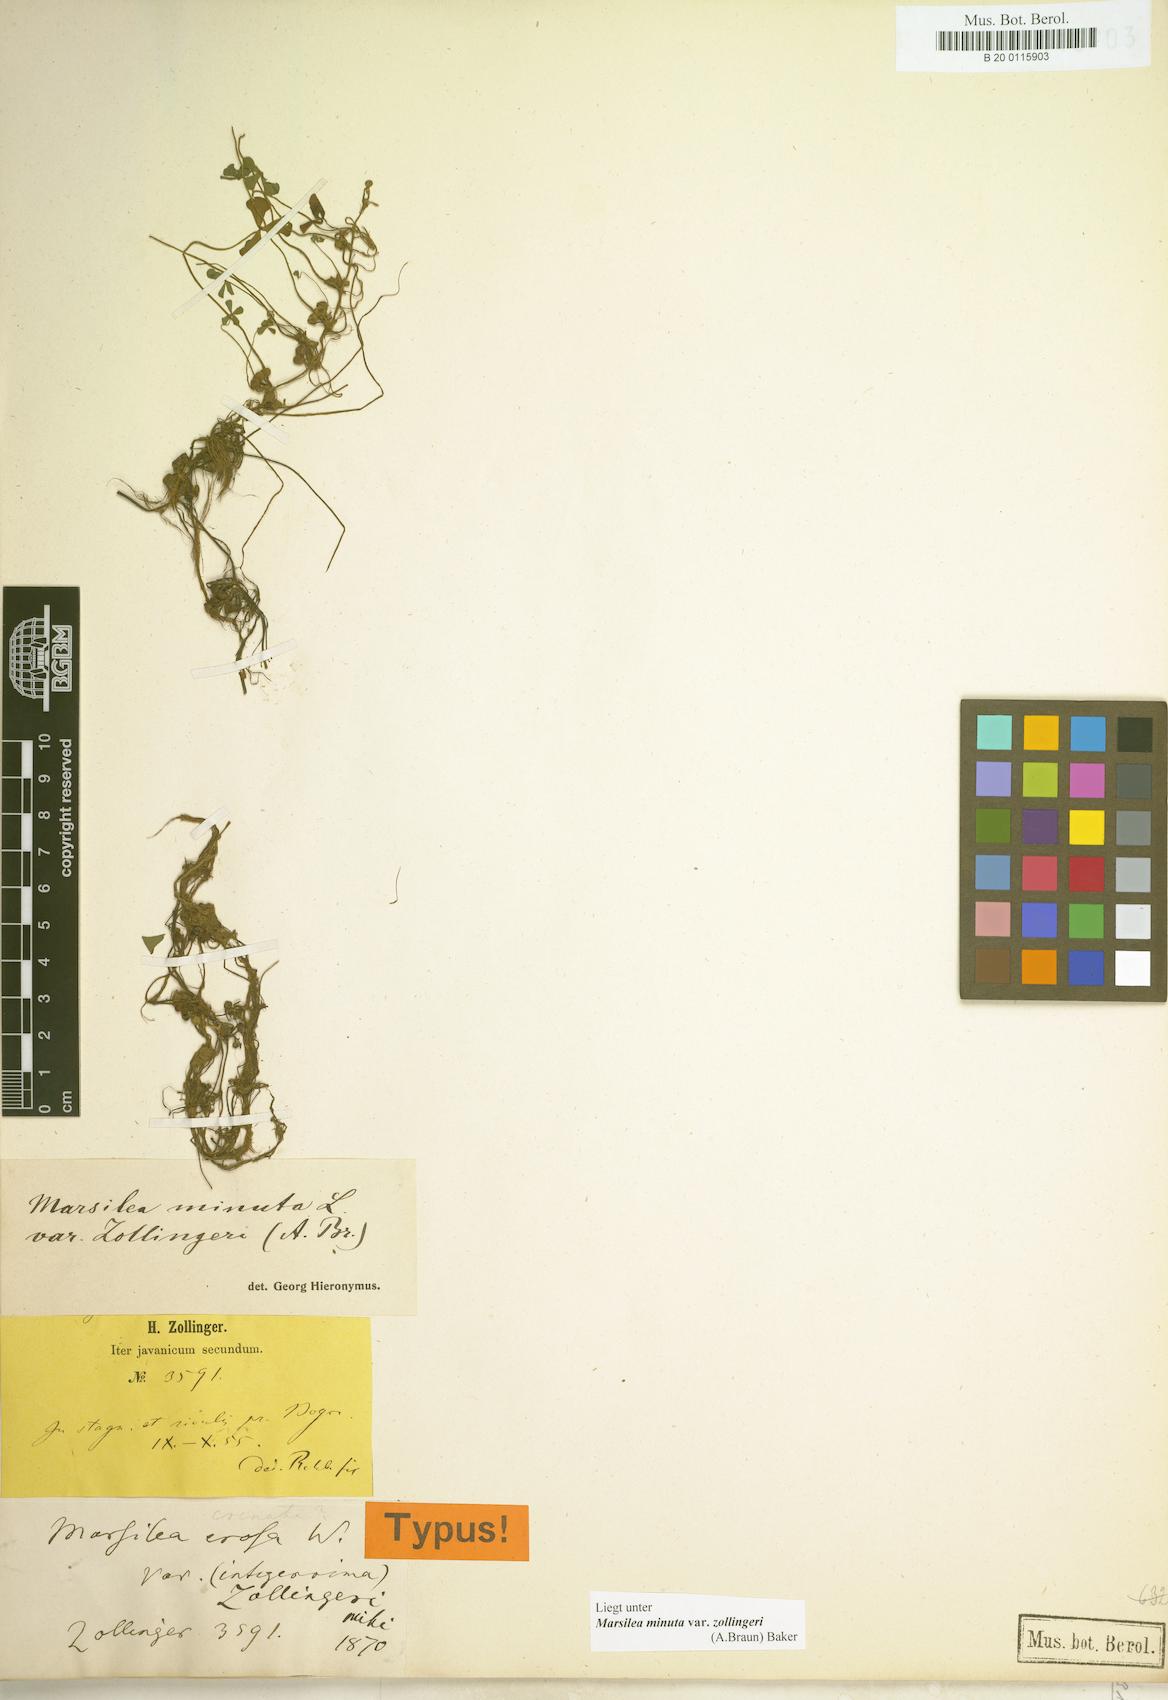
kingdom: Plantae
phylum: Tracheophyta
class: Polypodiopsida
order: Salviniales
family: Marsileaceae
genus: Marsilea
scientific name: Marsilea minuta
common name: Dwarf waterclover
